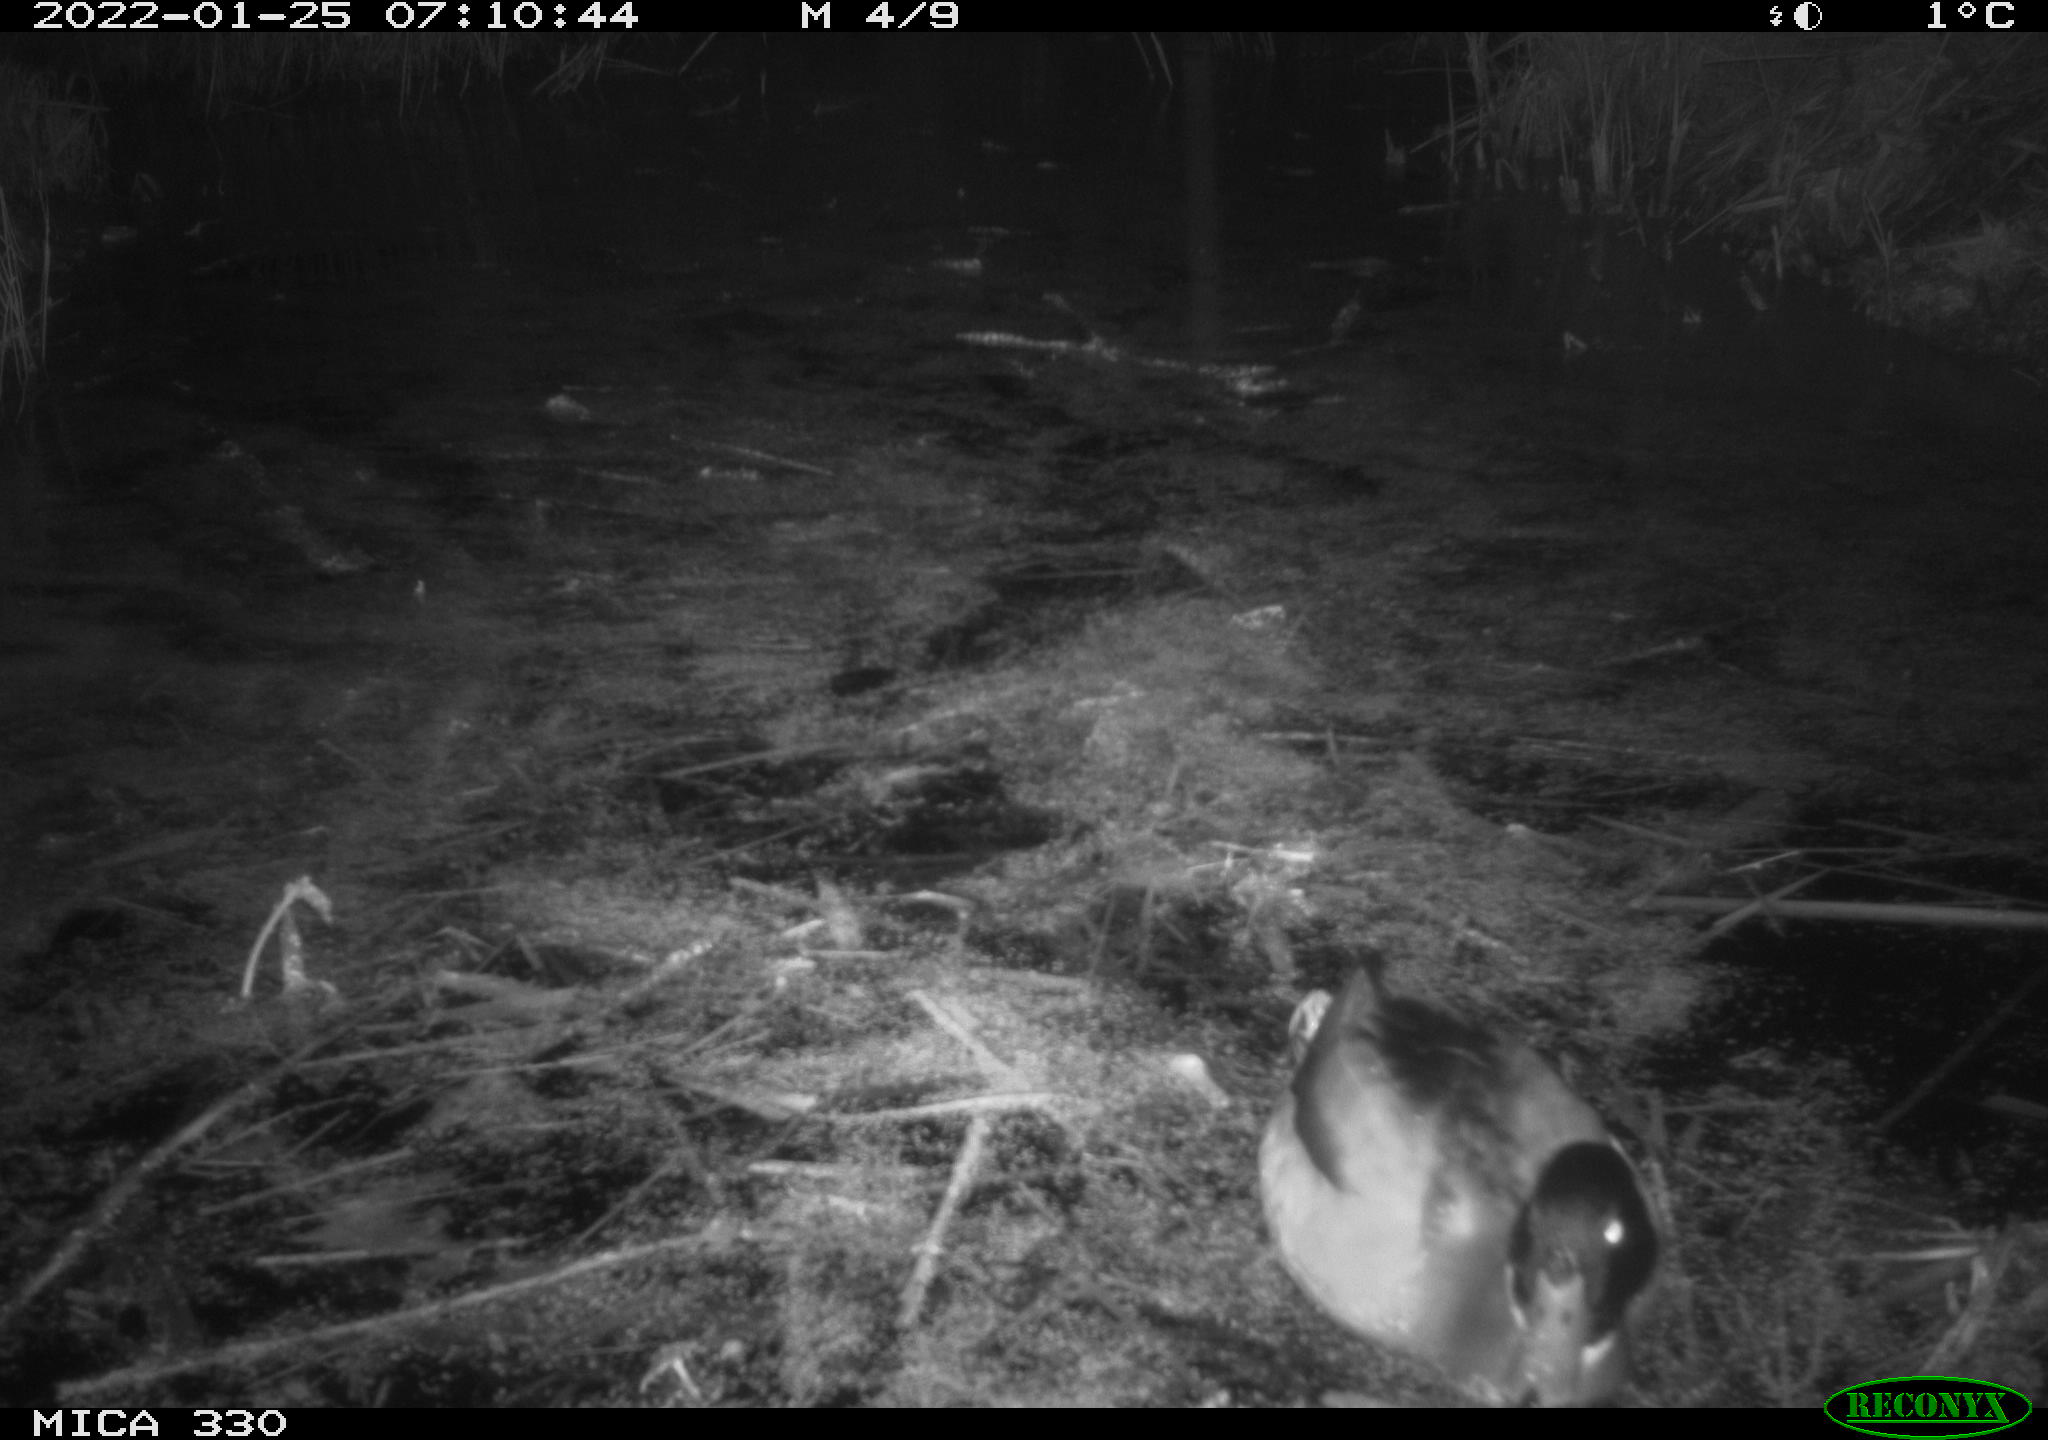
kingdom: Animalia
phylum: Chordata
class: Aves
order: Anseriformes
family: Anatidae
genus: Anas
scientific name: Anas platyrhynchos
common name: Mallard
